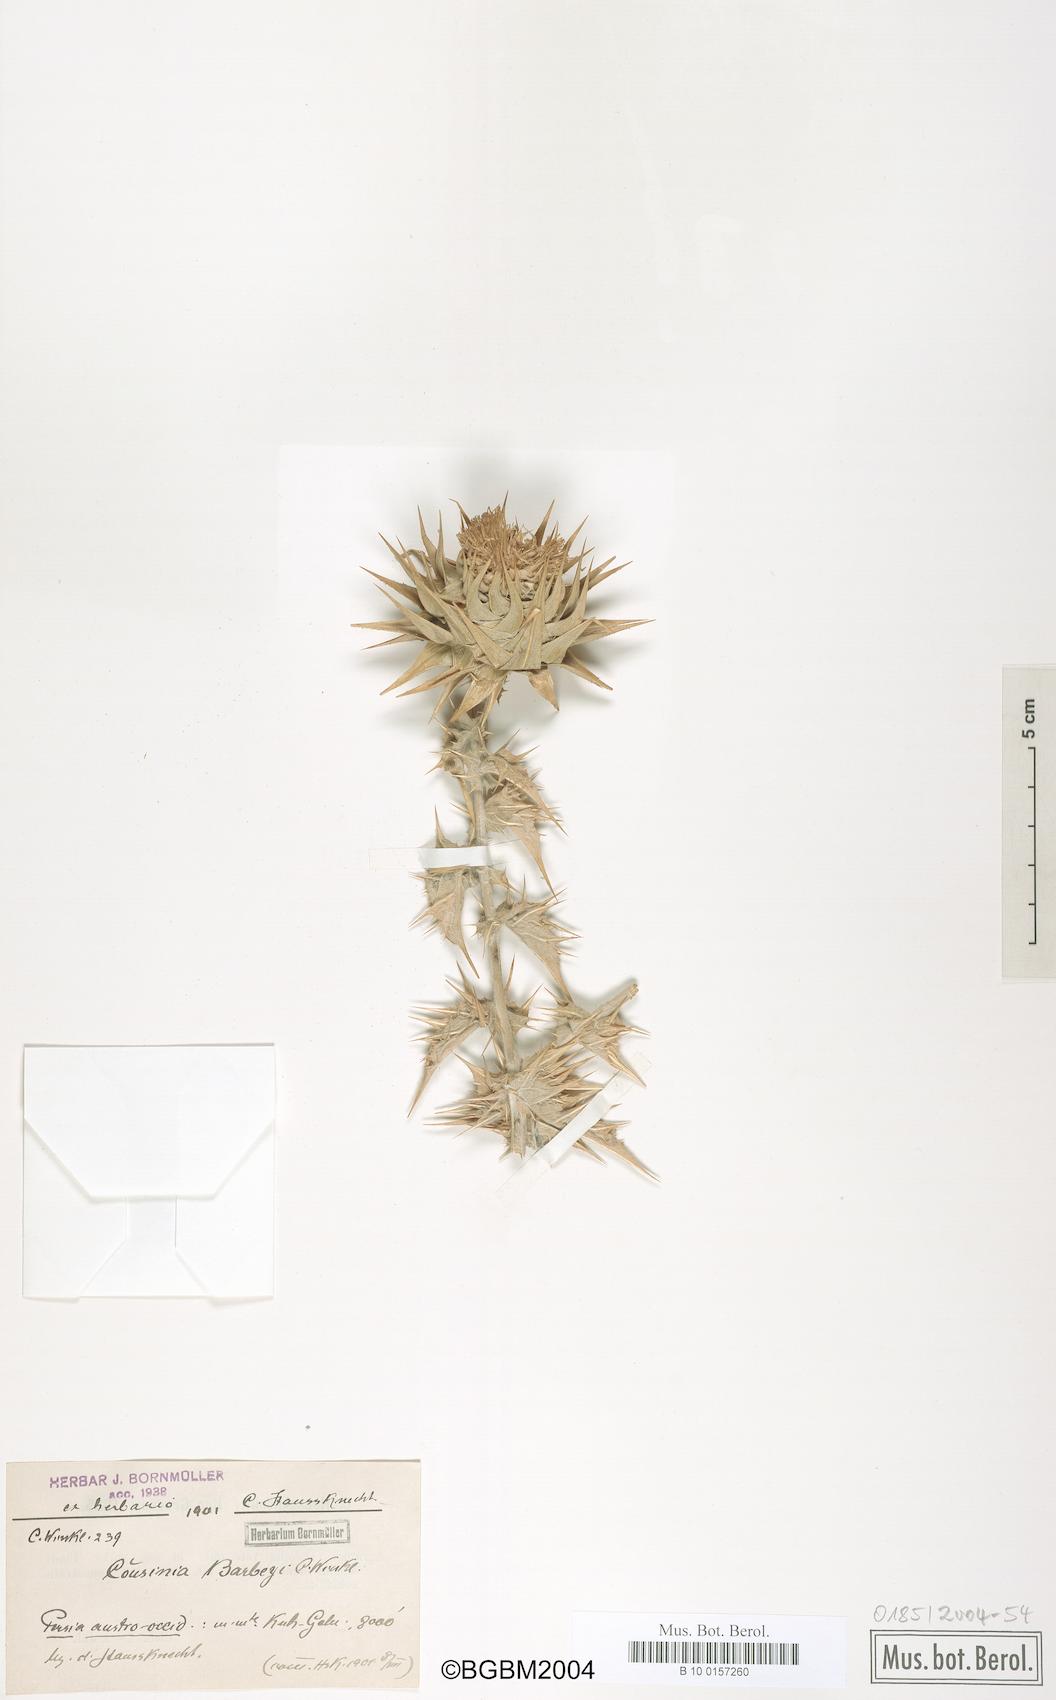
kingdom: Plantae
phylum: Tracheophyta
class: Magnoliopsida
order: Asterales
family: Asteraceae
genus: Cousinia
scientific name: Cousinia barbeyi
